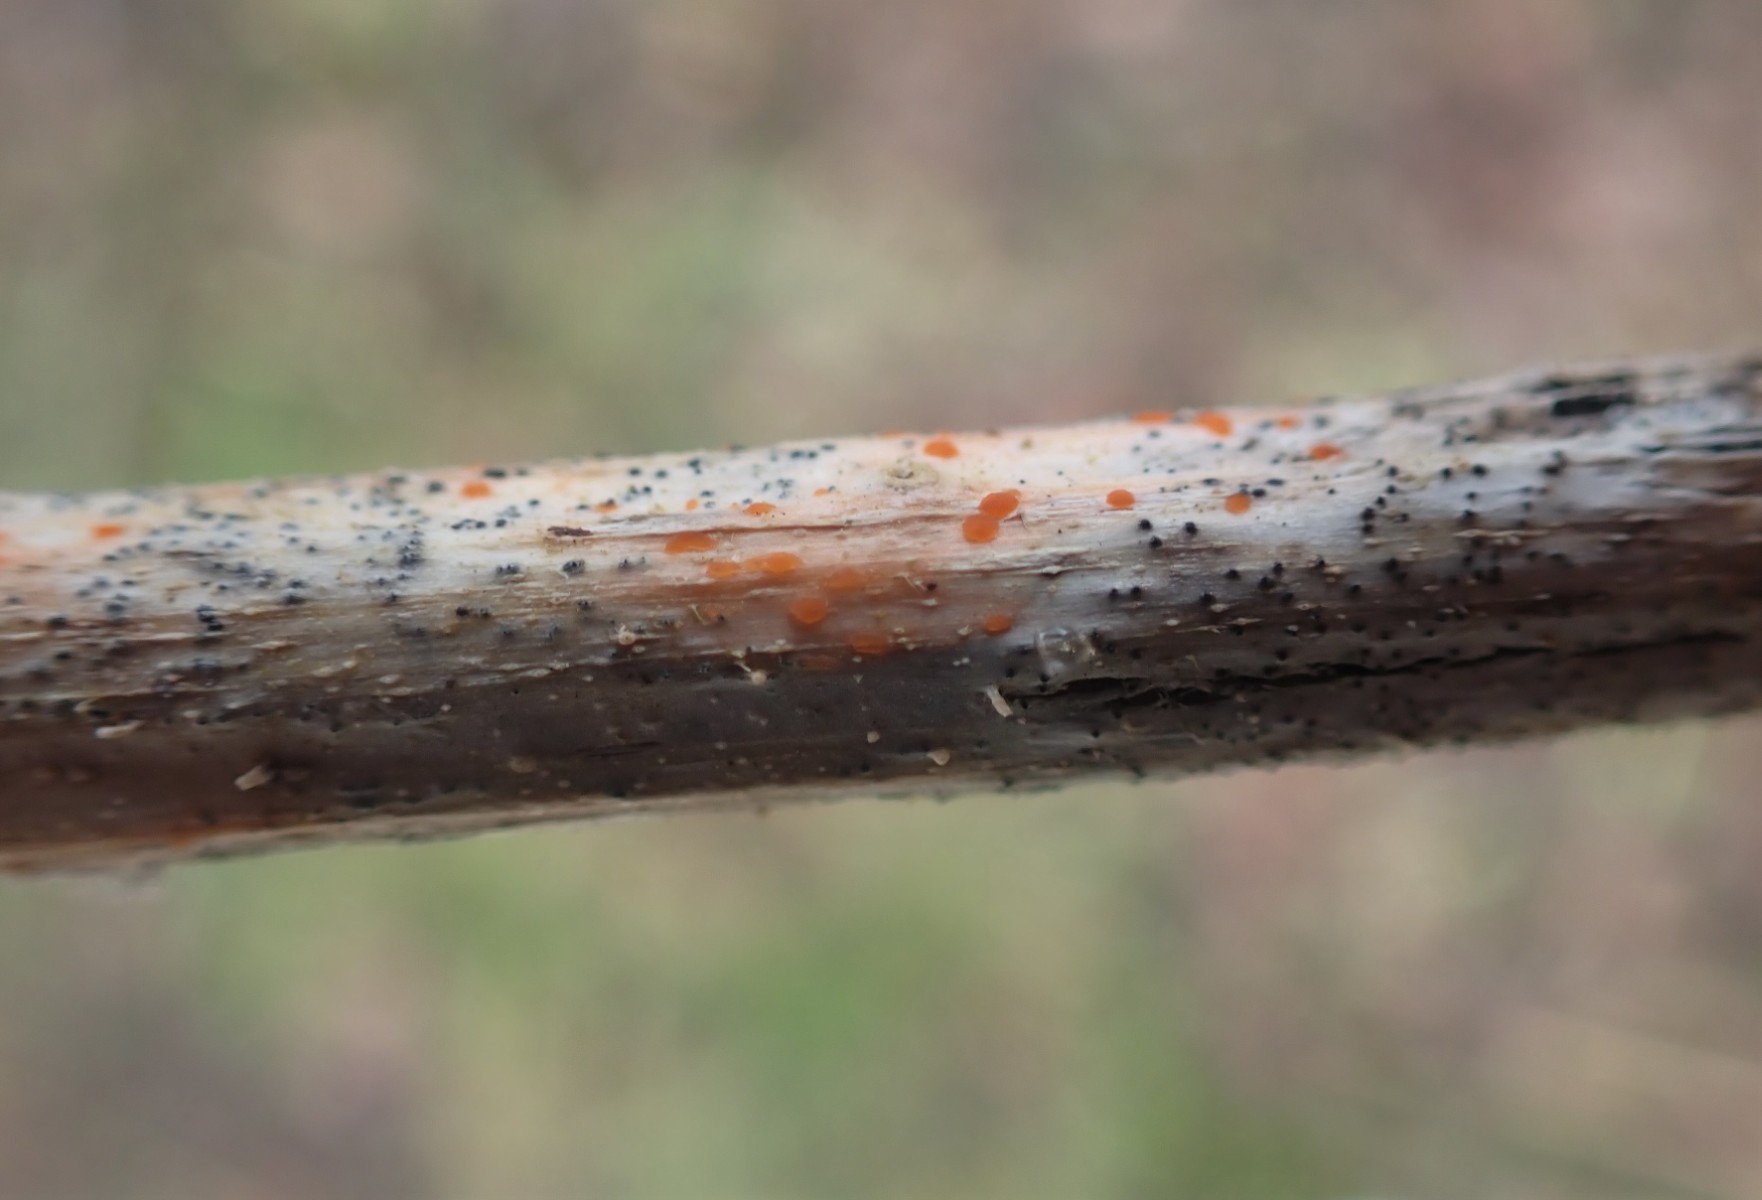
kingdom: Fungi
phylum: Ascomycota
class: Leotiomycetes
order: Helotiales
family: Calloriaceae
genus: Calloria
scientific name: Calloria urticae
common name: nælde-orangeskive
